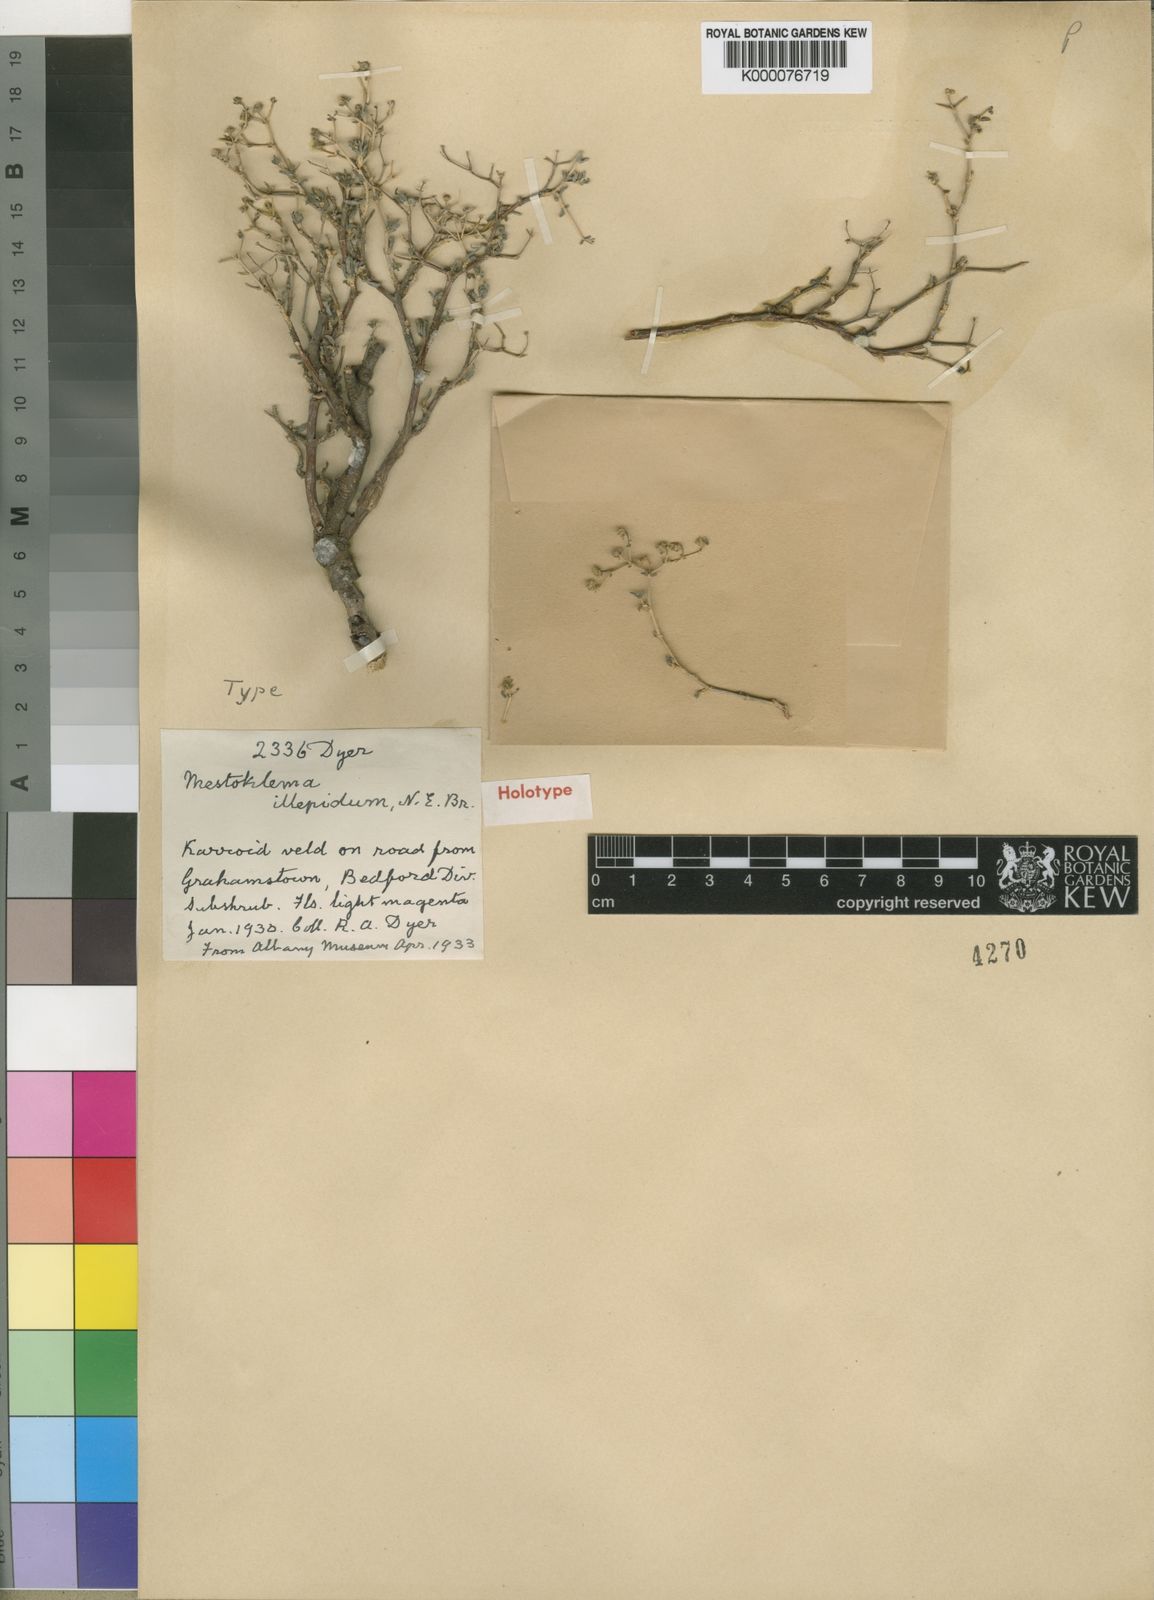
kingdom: Plantae
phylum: Tracheophyta
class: Magnoliopsida
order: Caryophyllales
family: Aizoaceae
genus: Mestoklema
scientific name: Mestoklema
